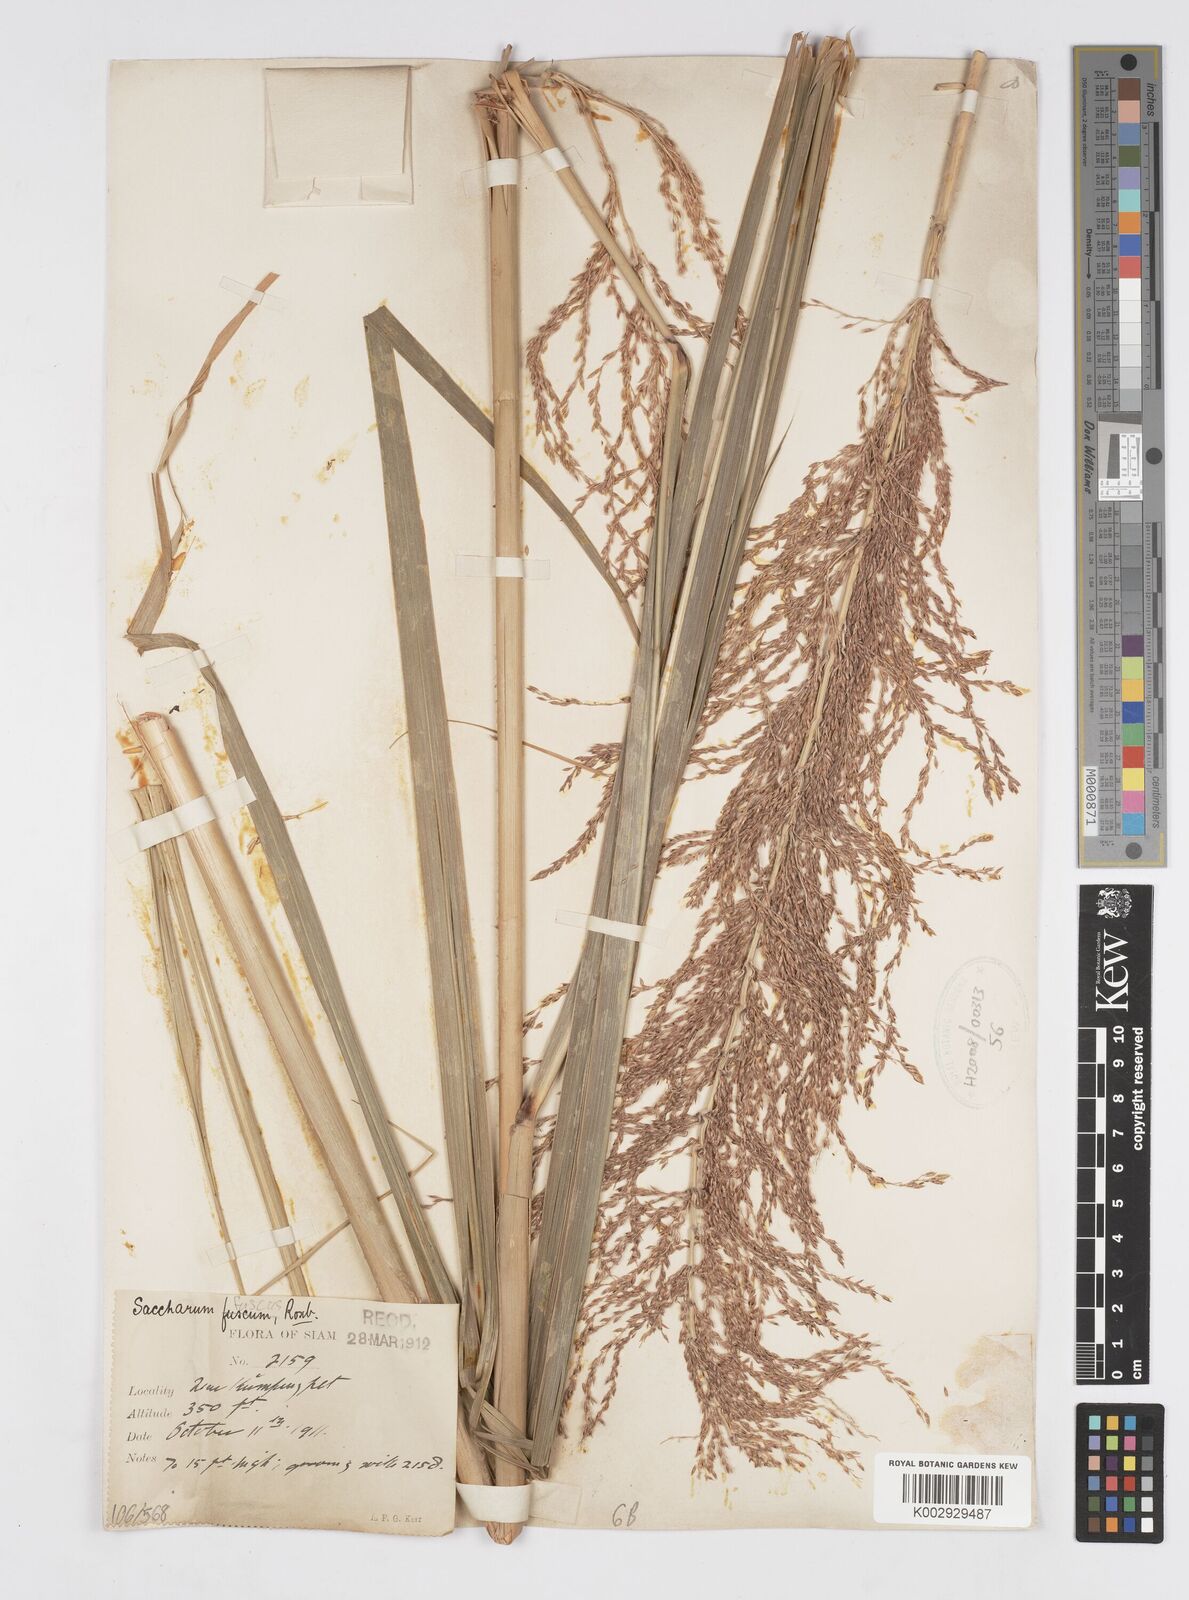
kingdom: Plantae
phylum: Tracheophyta
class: Liliopsida
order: Poales
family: Poaceae
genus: Miscanthus
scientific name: Miscanthus fuscus
